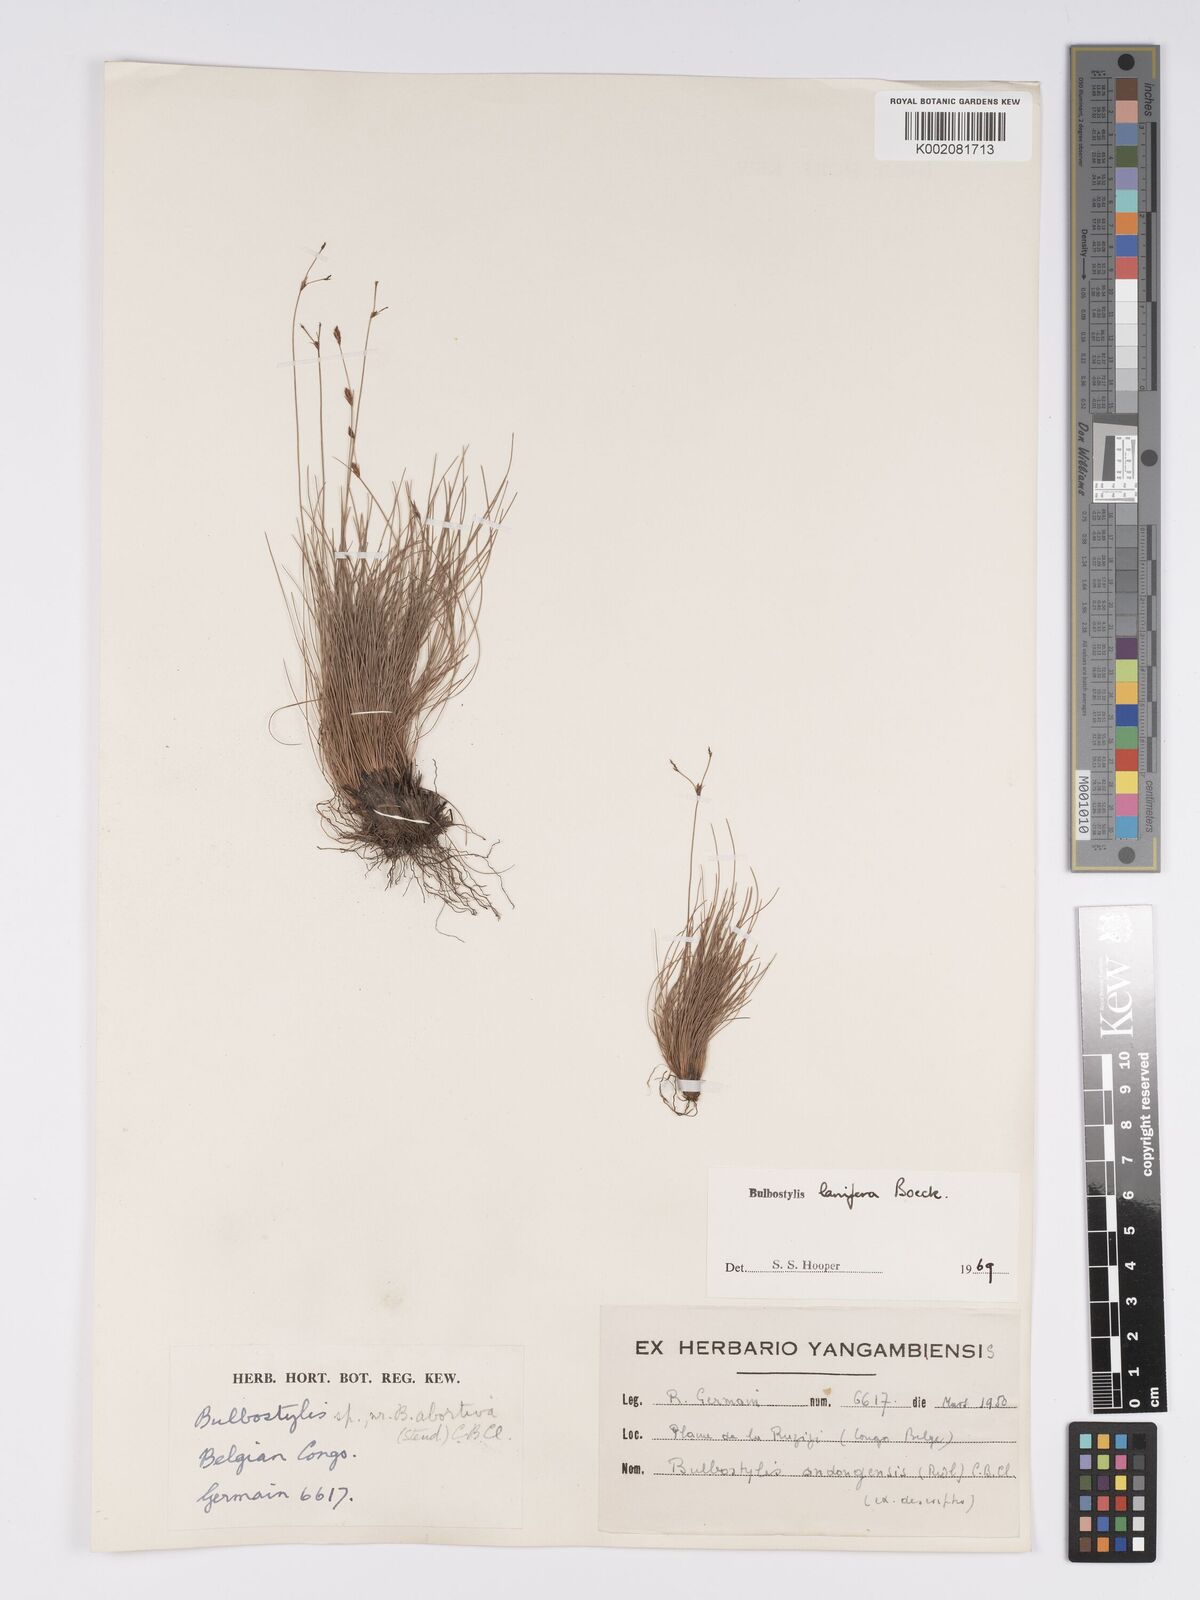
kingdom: Plantae
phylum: Tracheophyta
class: Liliopsida
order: Poales
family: Cyperaceae
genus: Bulbostylis
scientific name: Bulbostylis lanifera
